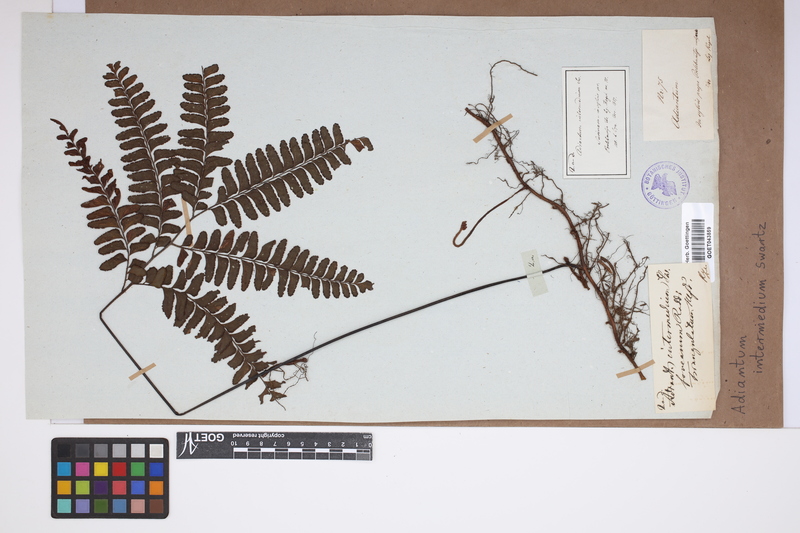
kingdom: Plantae
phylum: Tracheophyta
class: Polypodiopsida
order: Polypodiales
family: Pteridaceae
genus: Adiantum
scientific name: Adiantum intermedium
